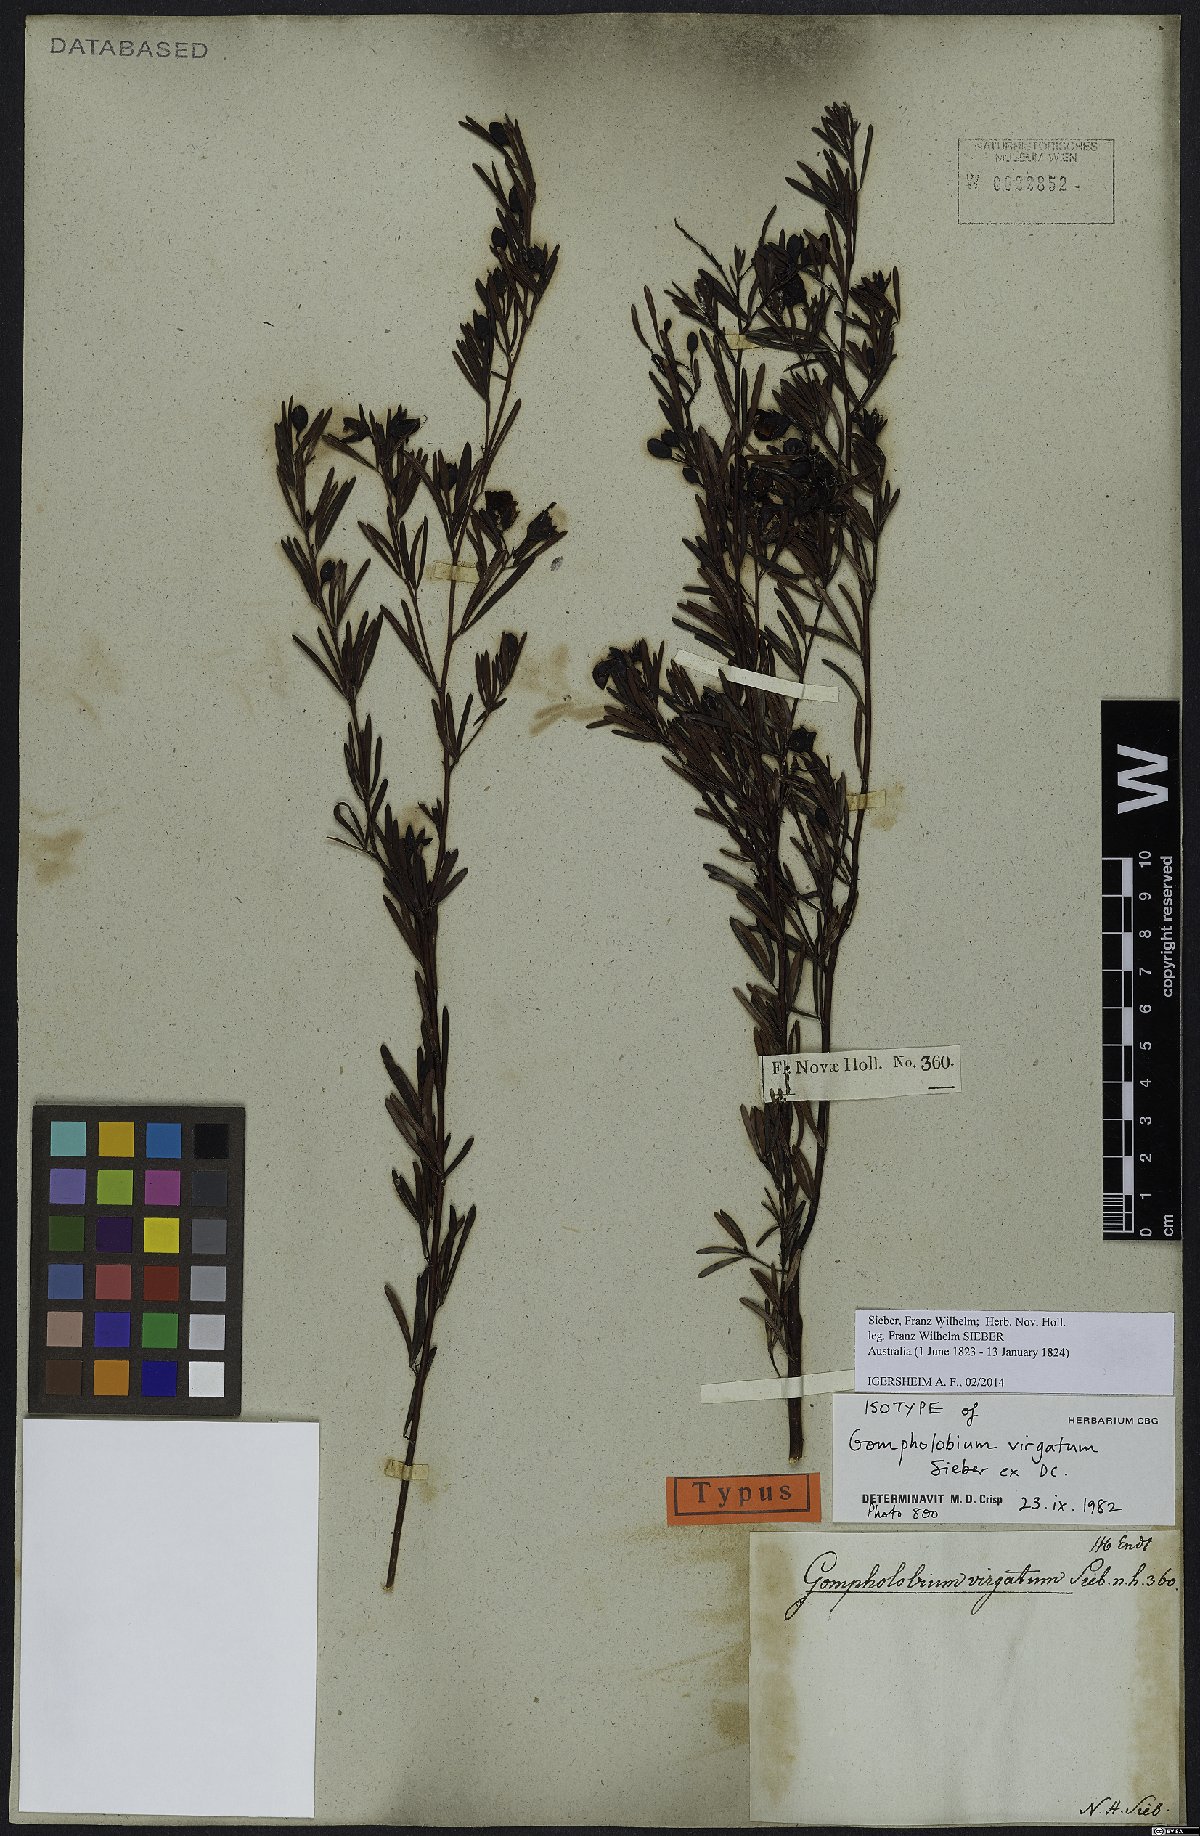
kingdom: Plantae
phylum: Tracheophyta
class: Magnoliopsida
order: Fabales
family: Fabaceae
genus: Gompholobium
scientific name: Gompholobium virgatum
